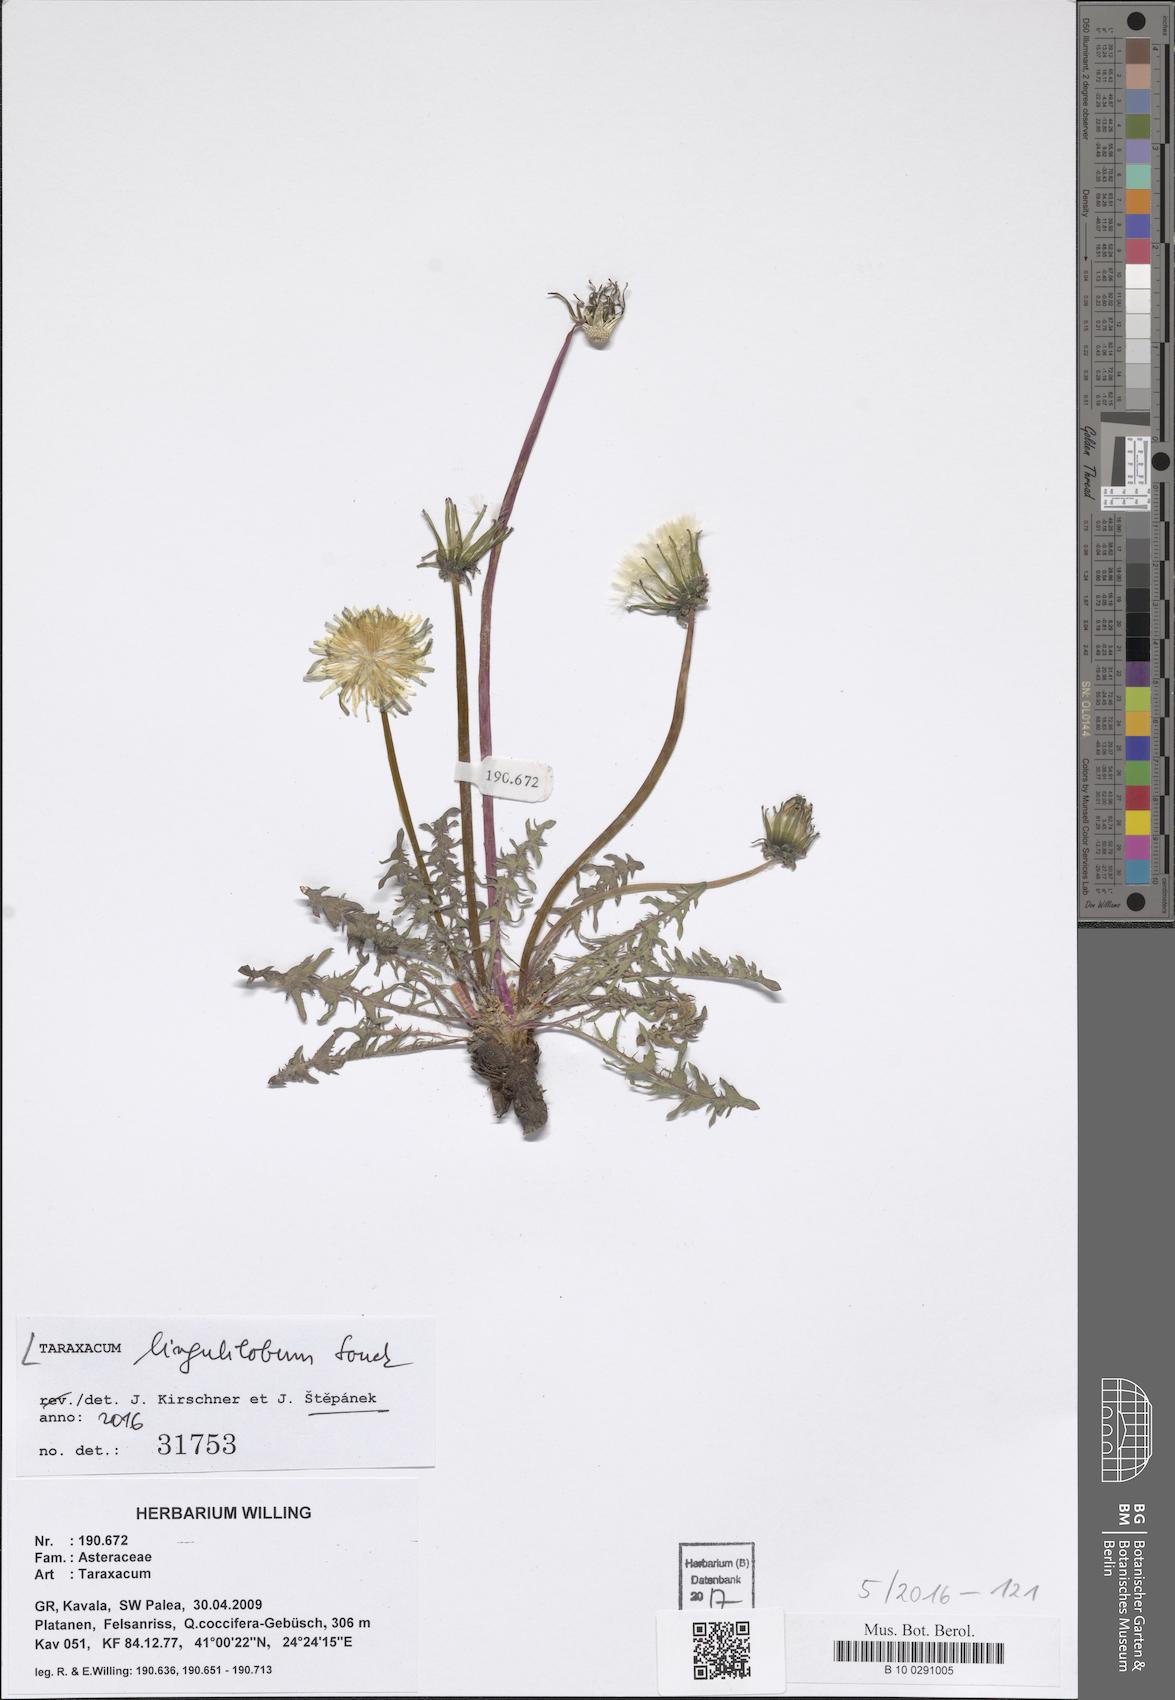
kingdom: Plantae
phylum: Tracheophyta
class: Magnoliopsida
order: Asterales
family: Asteraceae
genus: Taraxacum
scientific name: Taraxacum lingulilobum
